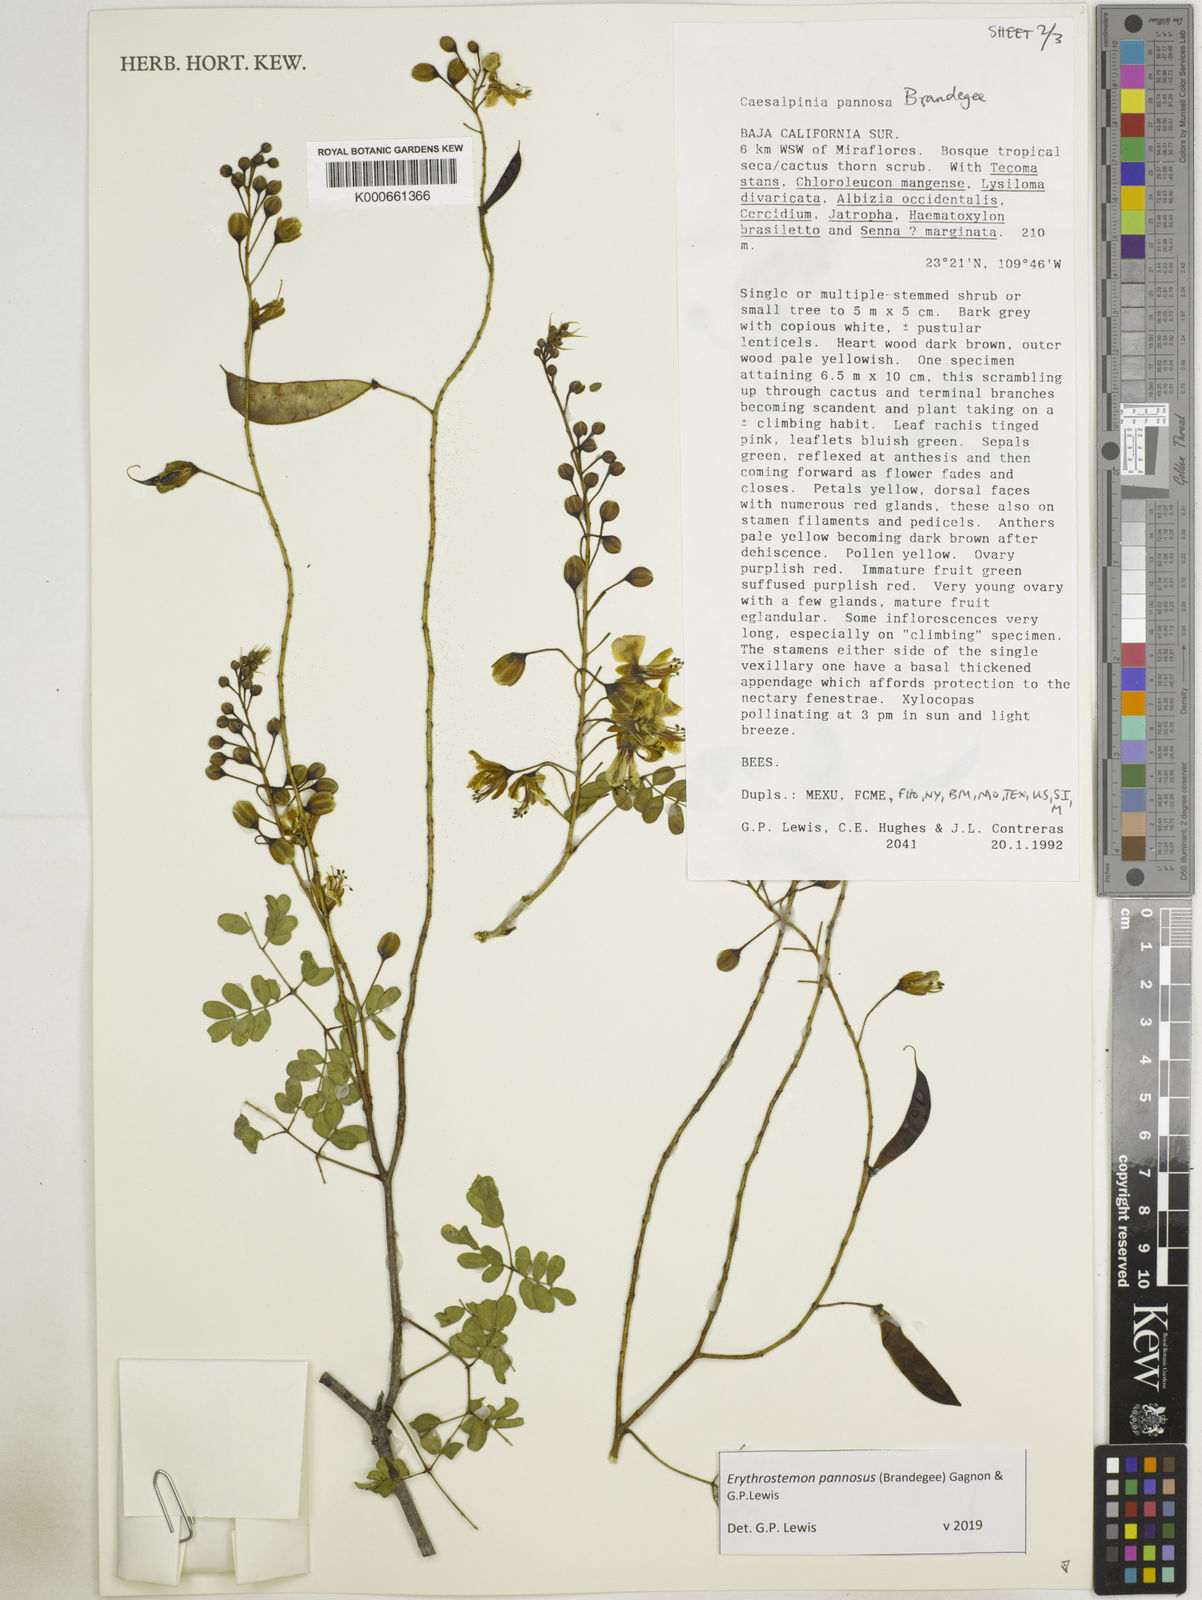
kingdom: Plantae
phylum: Tracheophyta
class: Magnoliopsida
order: Fabales
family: Fabaceae
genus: Erythrostemon
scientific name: Erythrostemon pannosus
